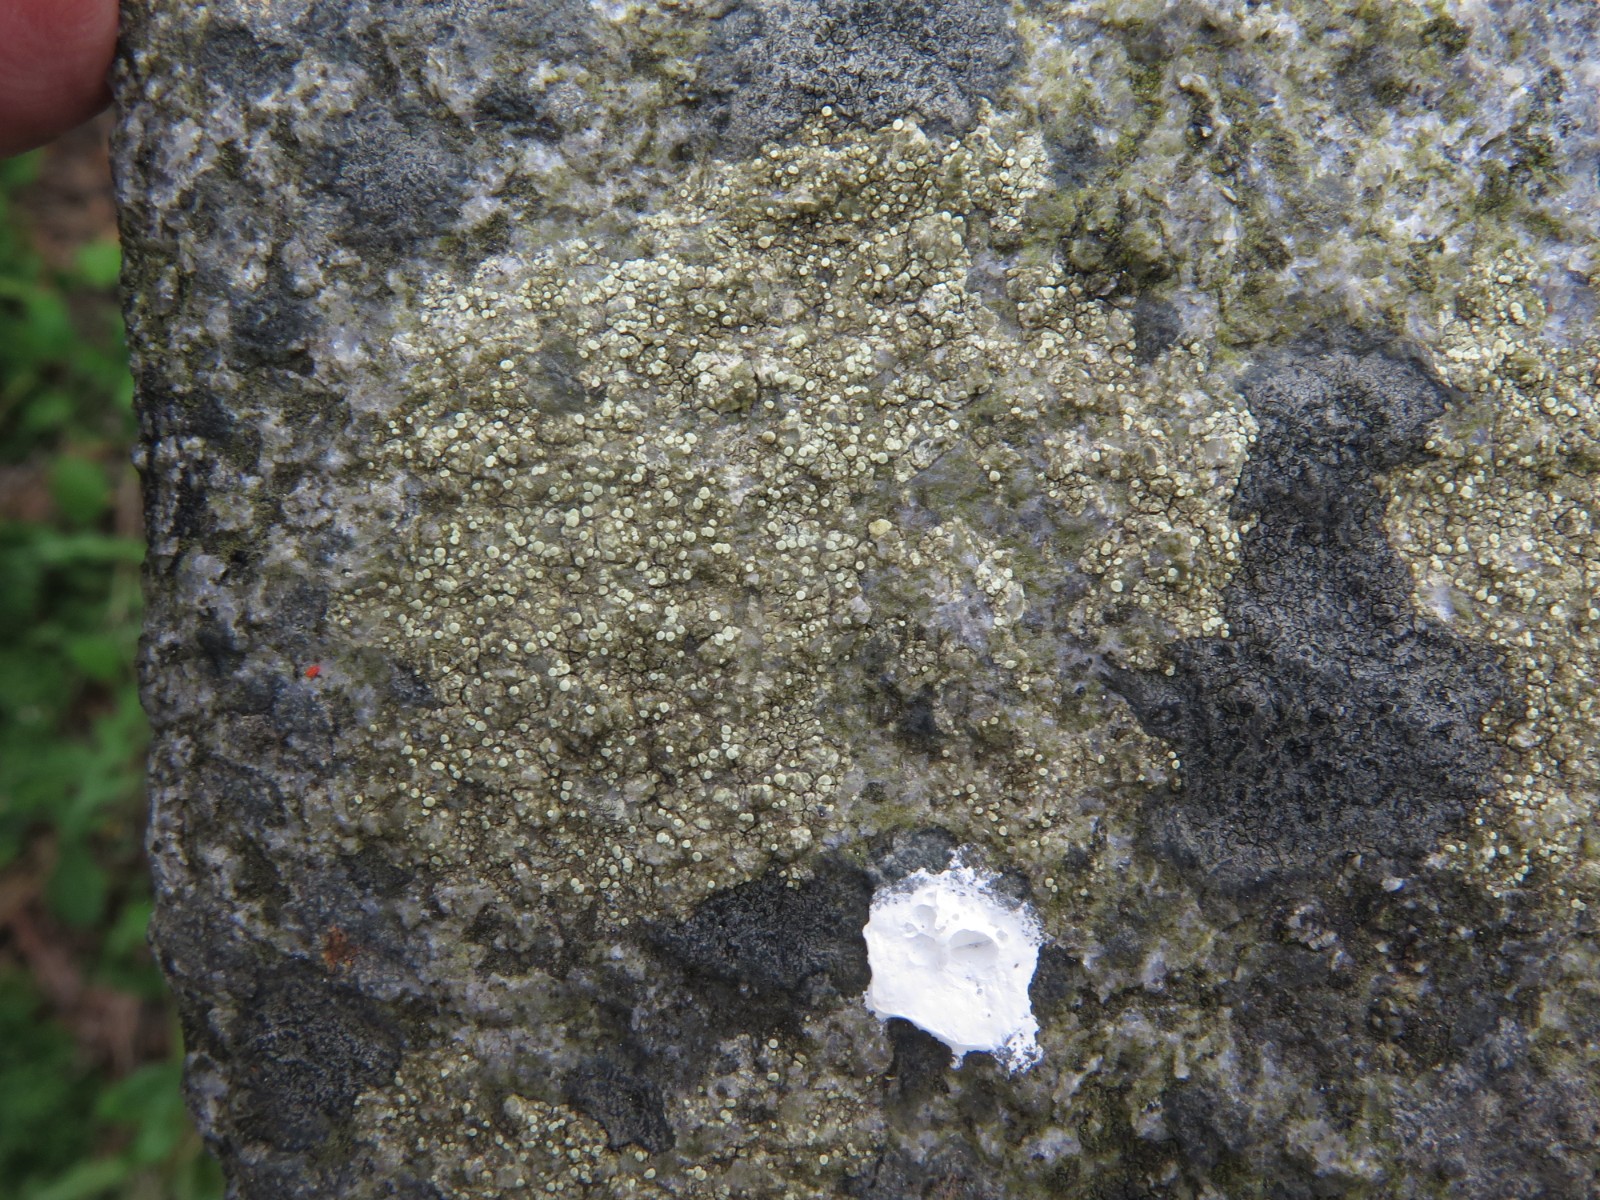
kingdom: Fungi
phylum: Ascomycota
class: Lecanoromycetes
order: Lecanorales
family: Lecanoraceae
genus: Lecanora
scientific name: Lecanora polytropa
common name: bleggrøn kantskivelav
